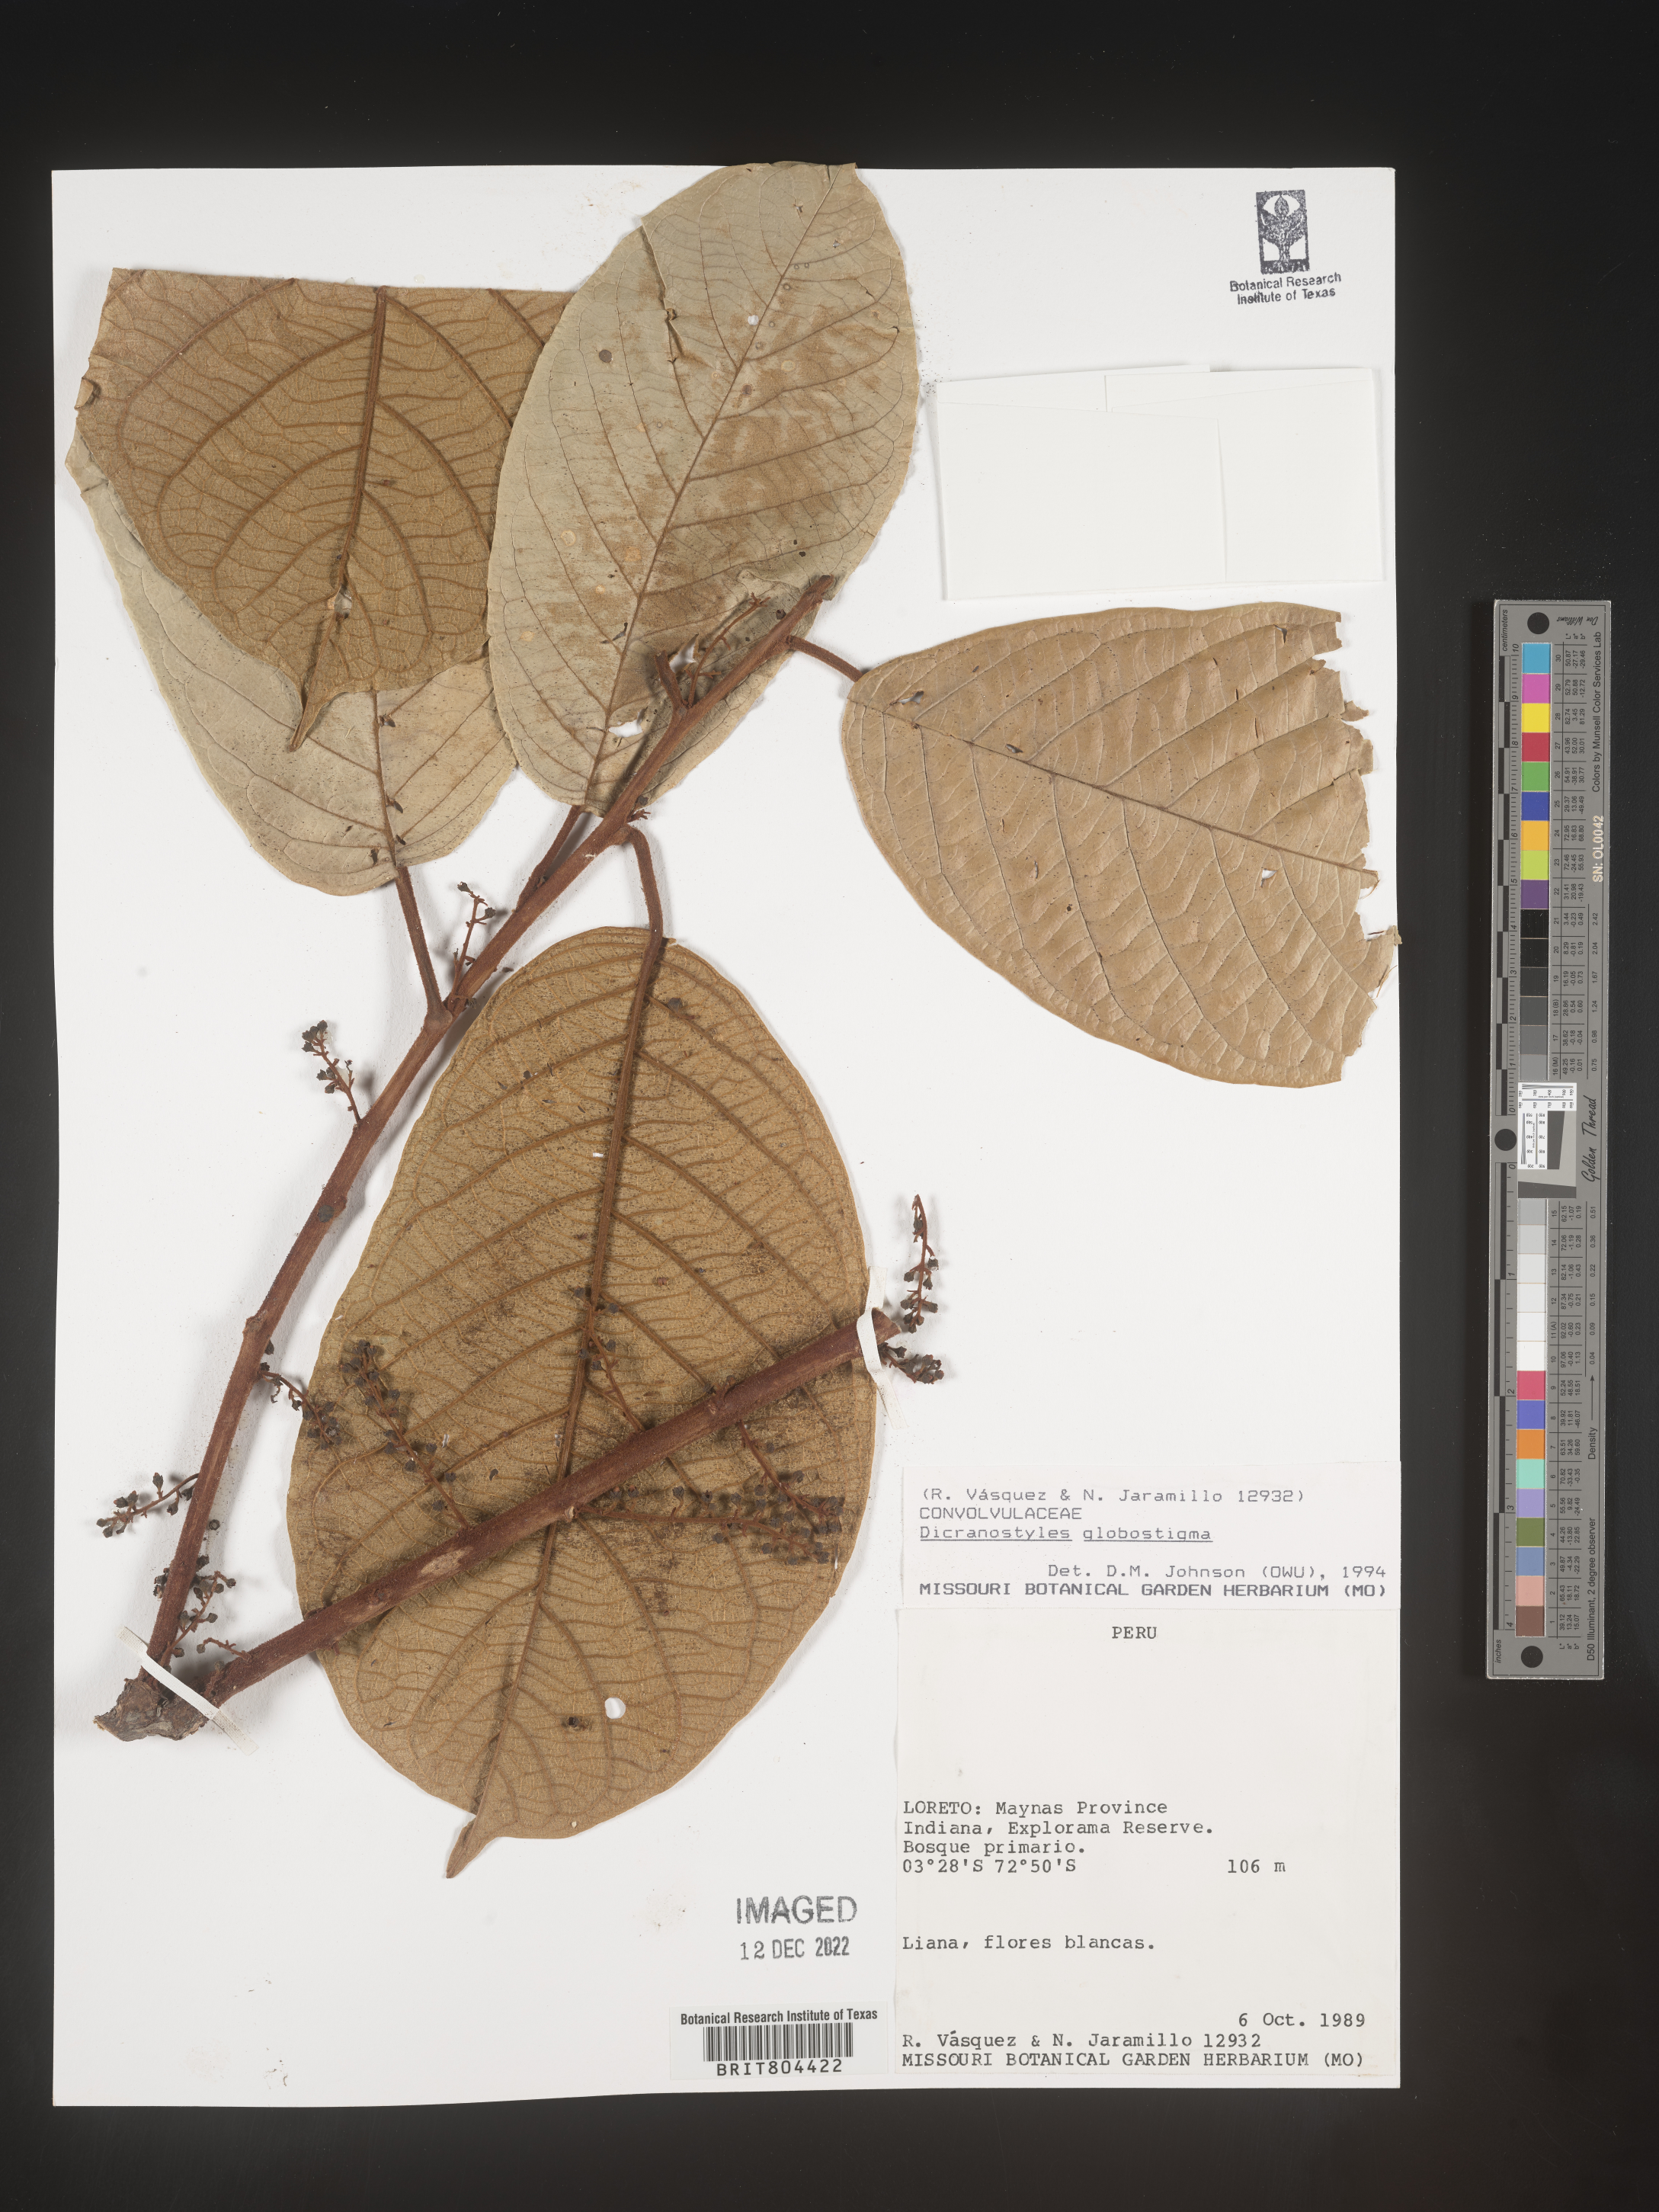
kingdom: Plantae
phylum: Tracheophyta
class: Magnoliopsida
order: Solanales
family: Convolvulaceae
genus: Dicranostyles
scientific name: Dicranostyles
